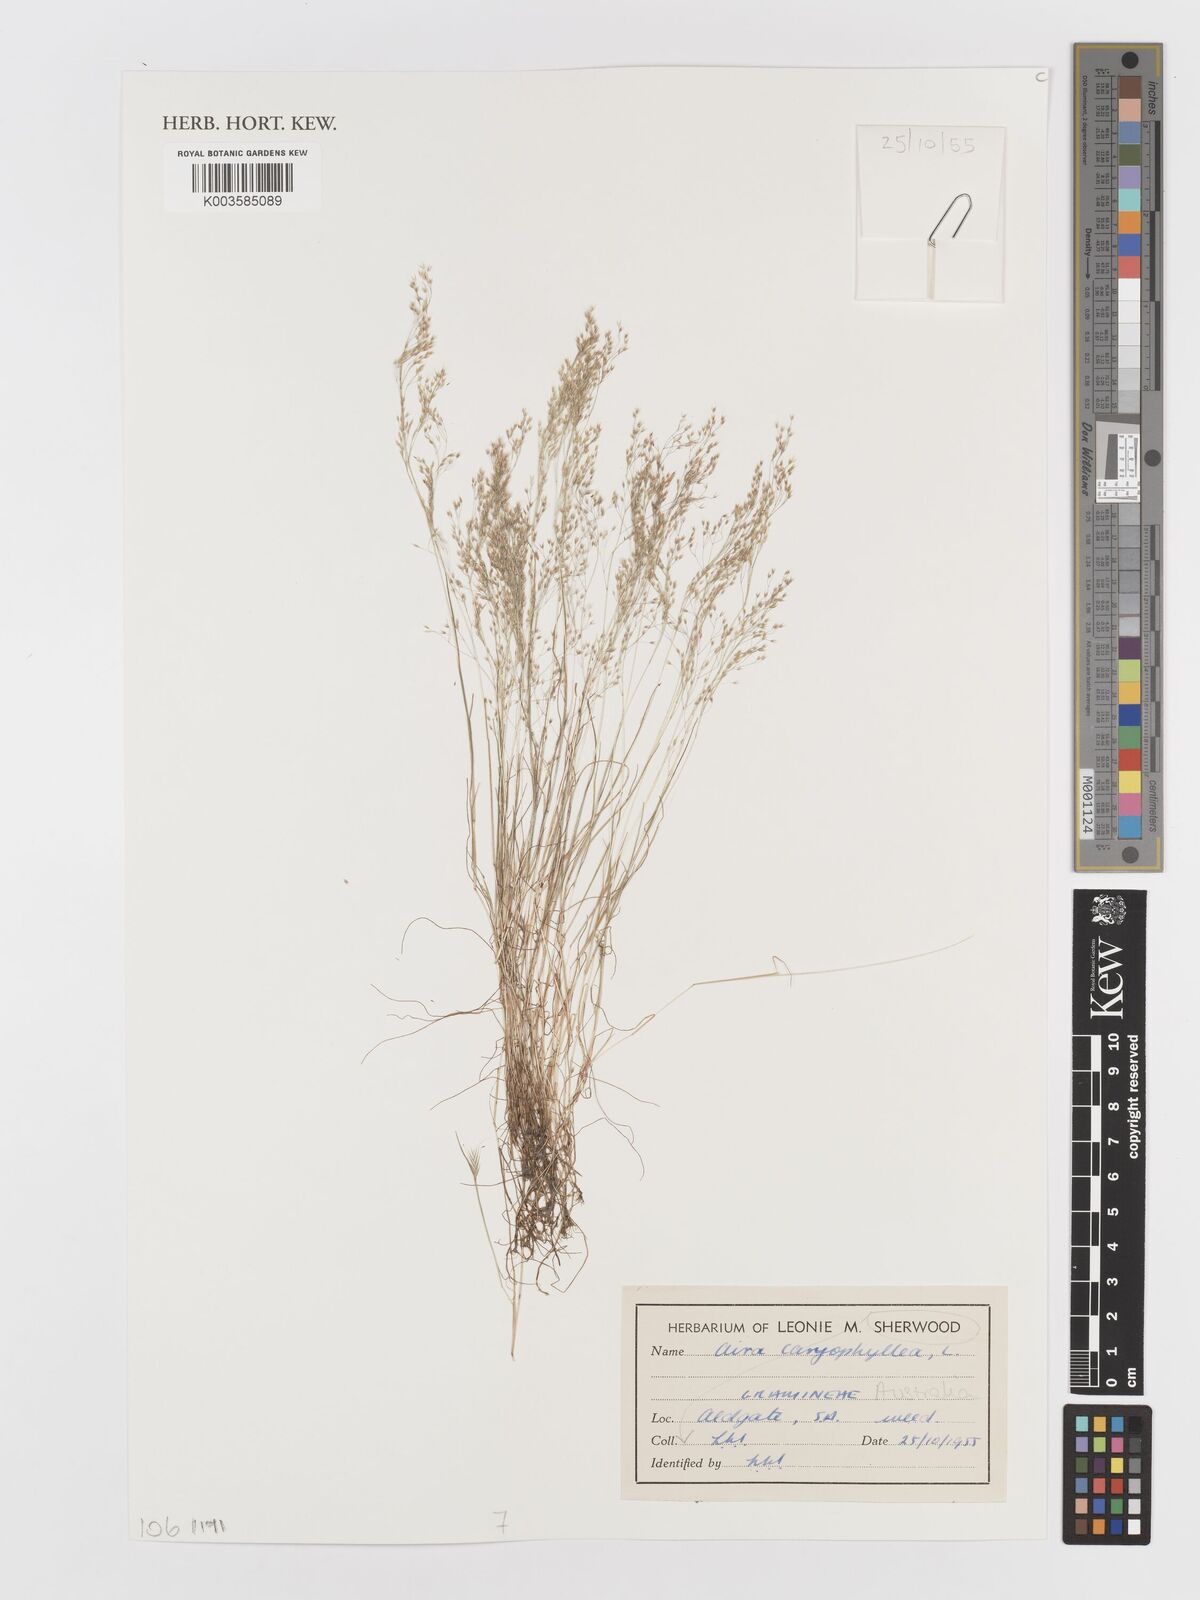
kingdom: Plantae
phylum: Tracheophyta
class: Liliopsida
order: Poales
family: Poaceae
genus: Aira
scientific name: Aira caryophyllea
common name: Silver hairgrass
